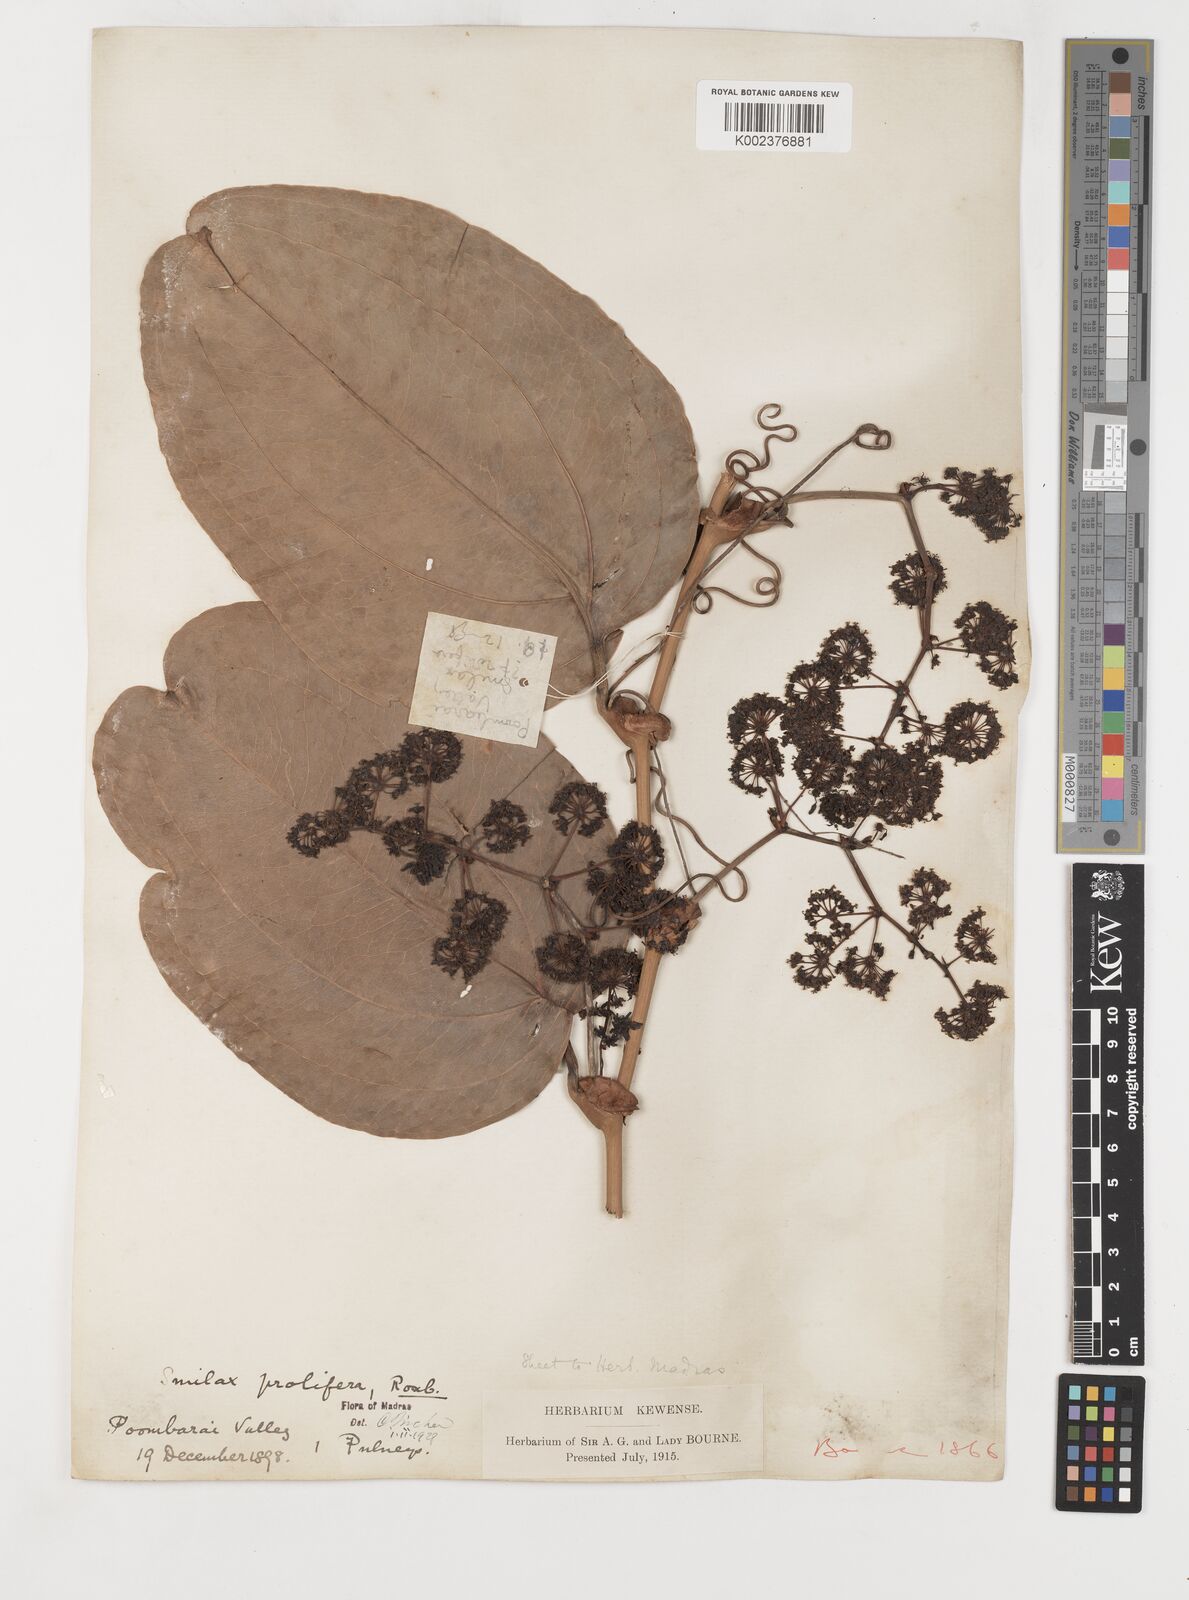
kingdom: Plantae
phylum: Tracheophyta
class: Liliopsida
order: Liliales
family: Smilacaceae
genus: Smilax
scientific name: Smilax prolifera
